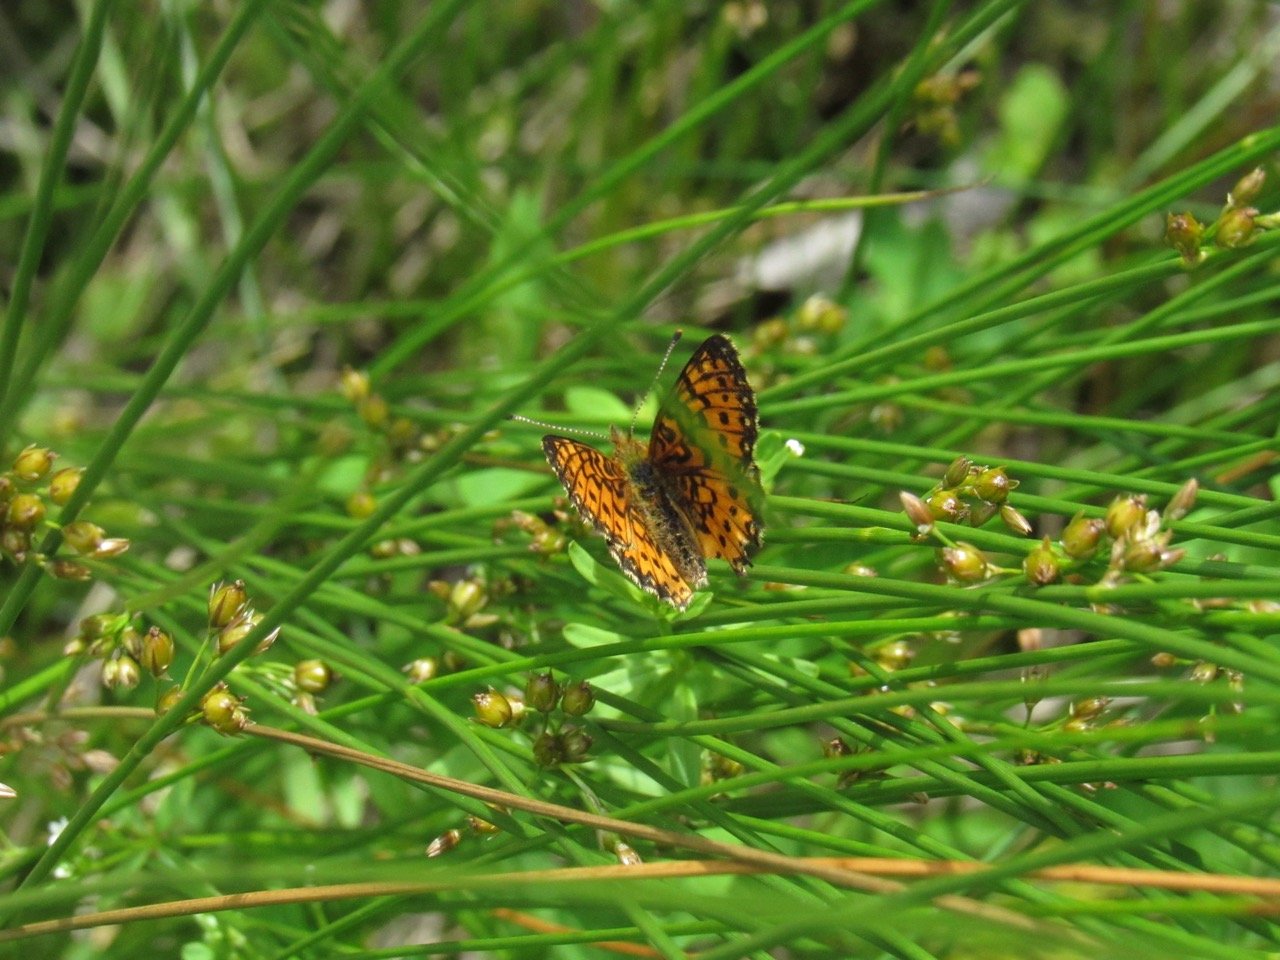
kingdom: Animalia
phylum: Arthropoda
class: Insecta
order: Lepidoptera
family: Nymphalidae
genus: Boloria
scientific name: Boloria selene
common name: Silver-bordered Fritillary
